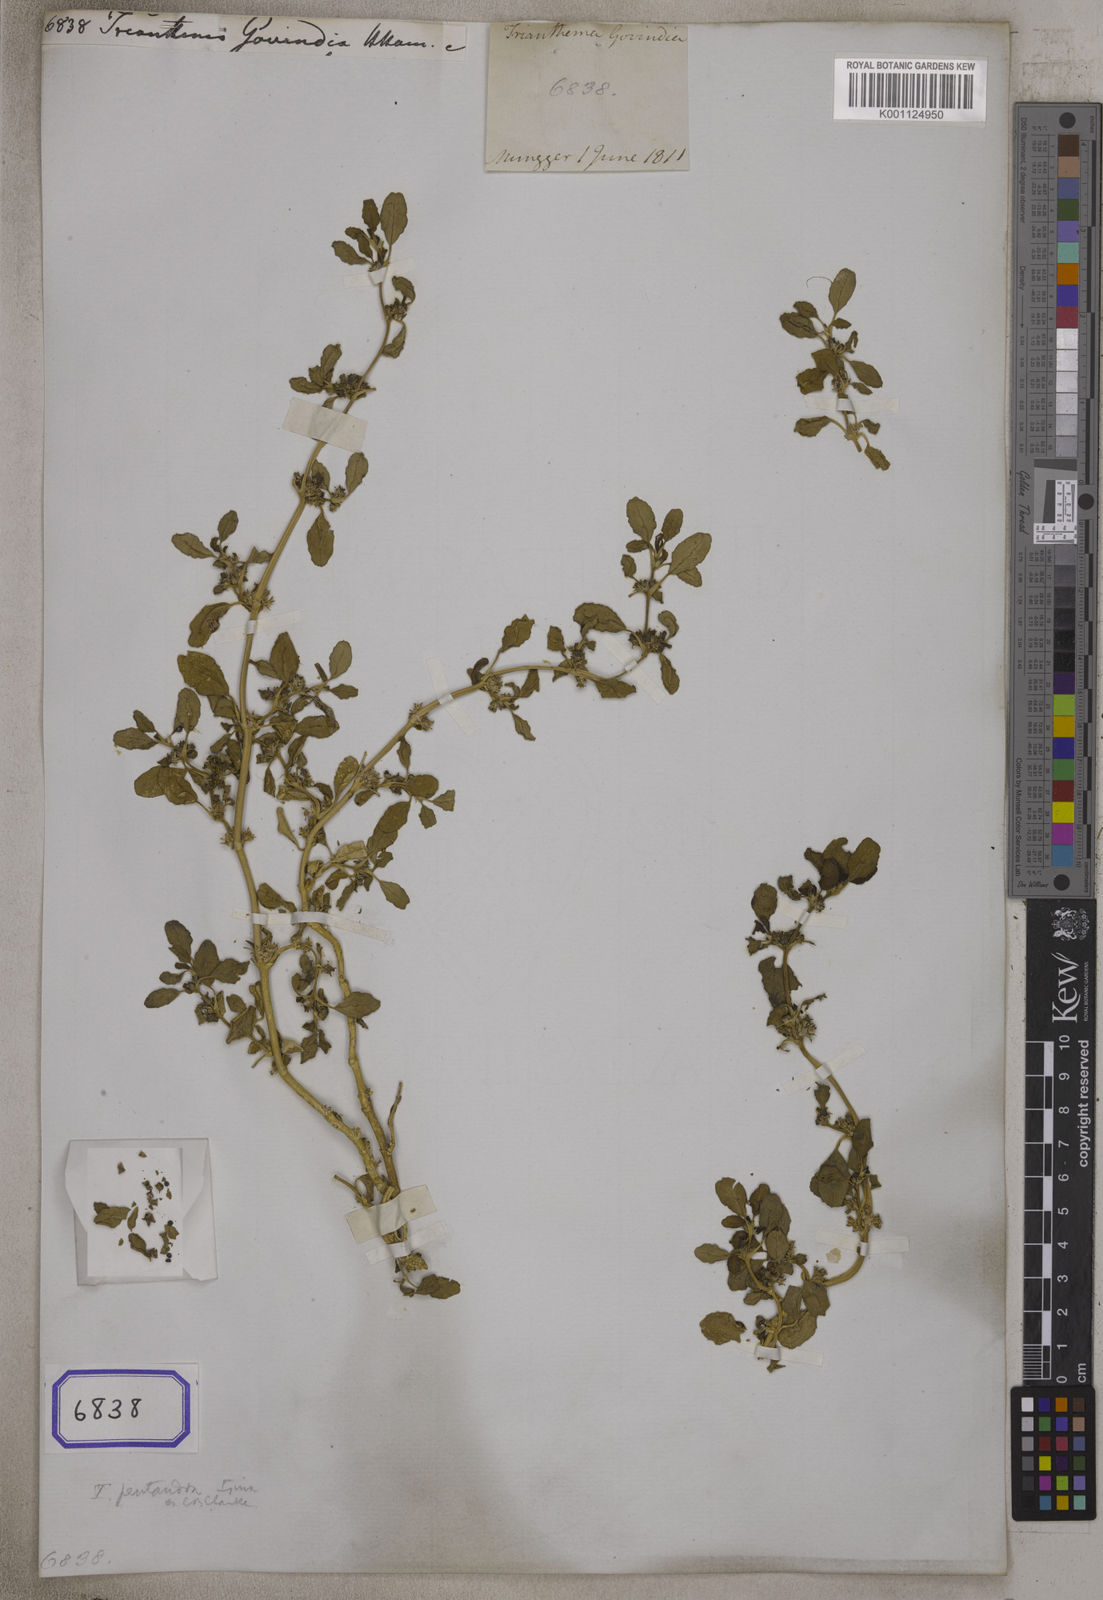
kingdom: Plantae
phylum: Tracheophyta
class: Magnoliopsida
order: Caryophyllales
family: Aizoaceae
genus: Trianthema
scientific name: Trianthema
